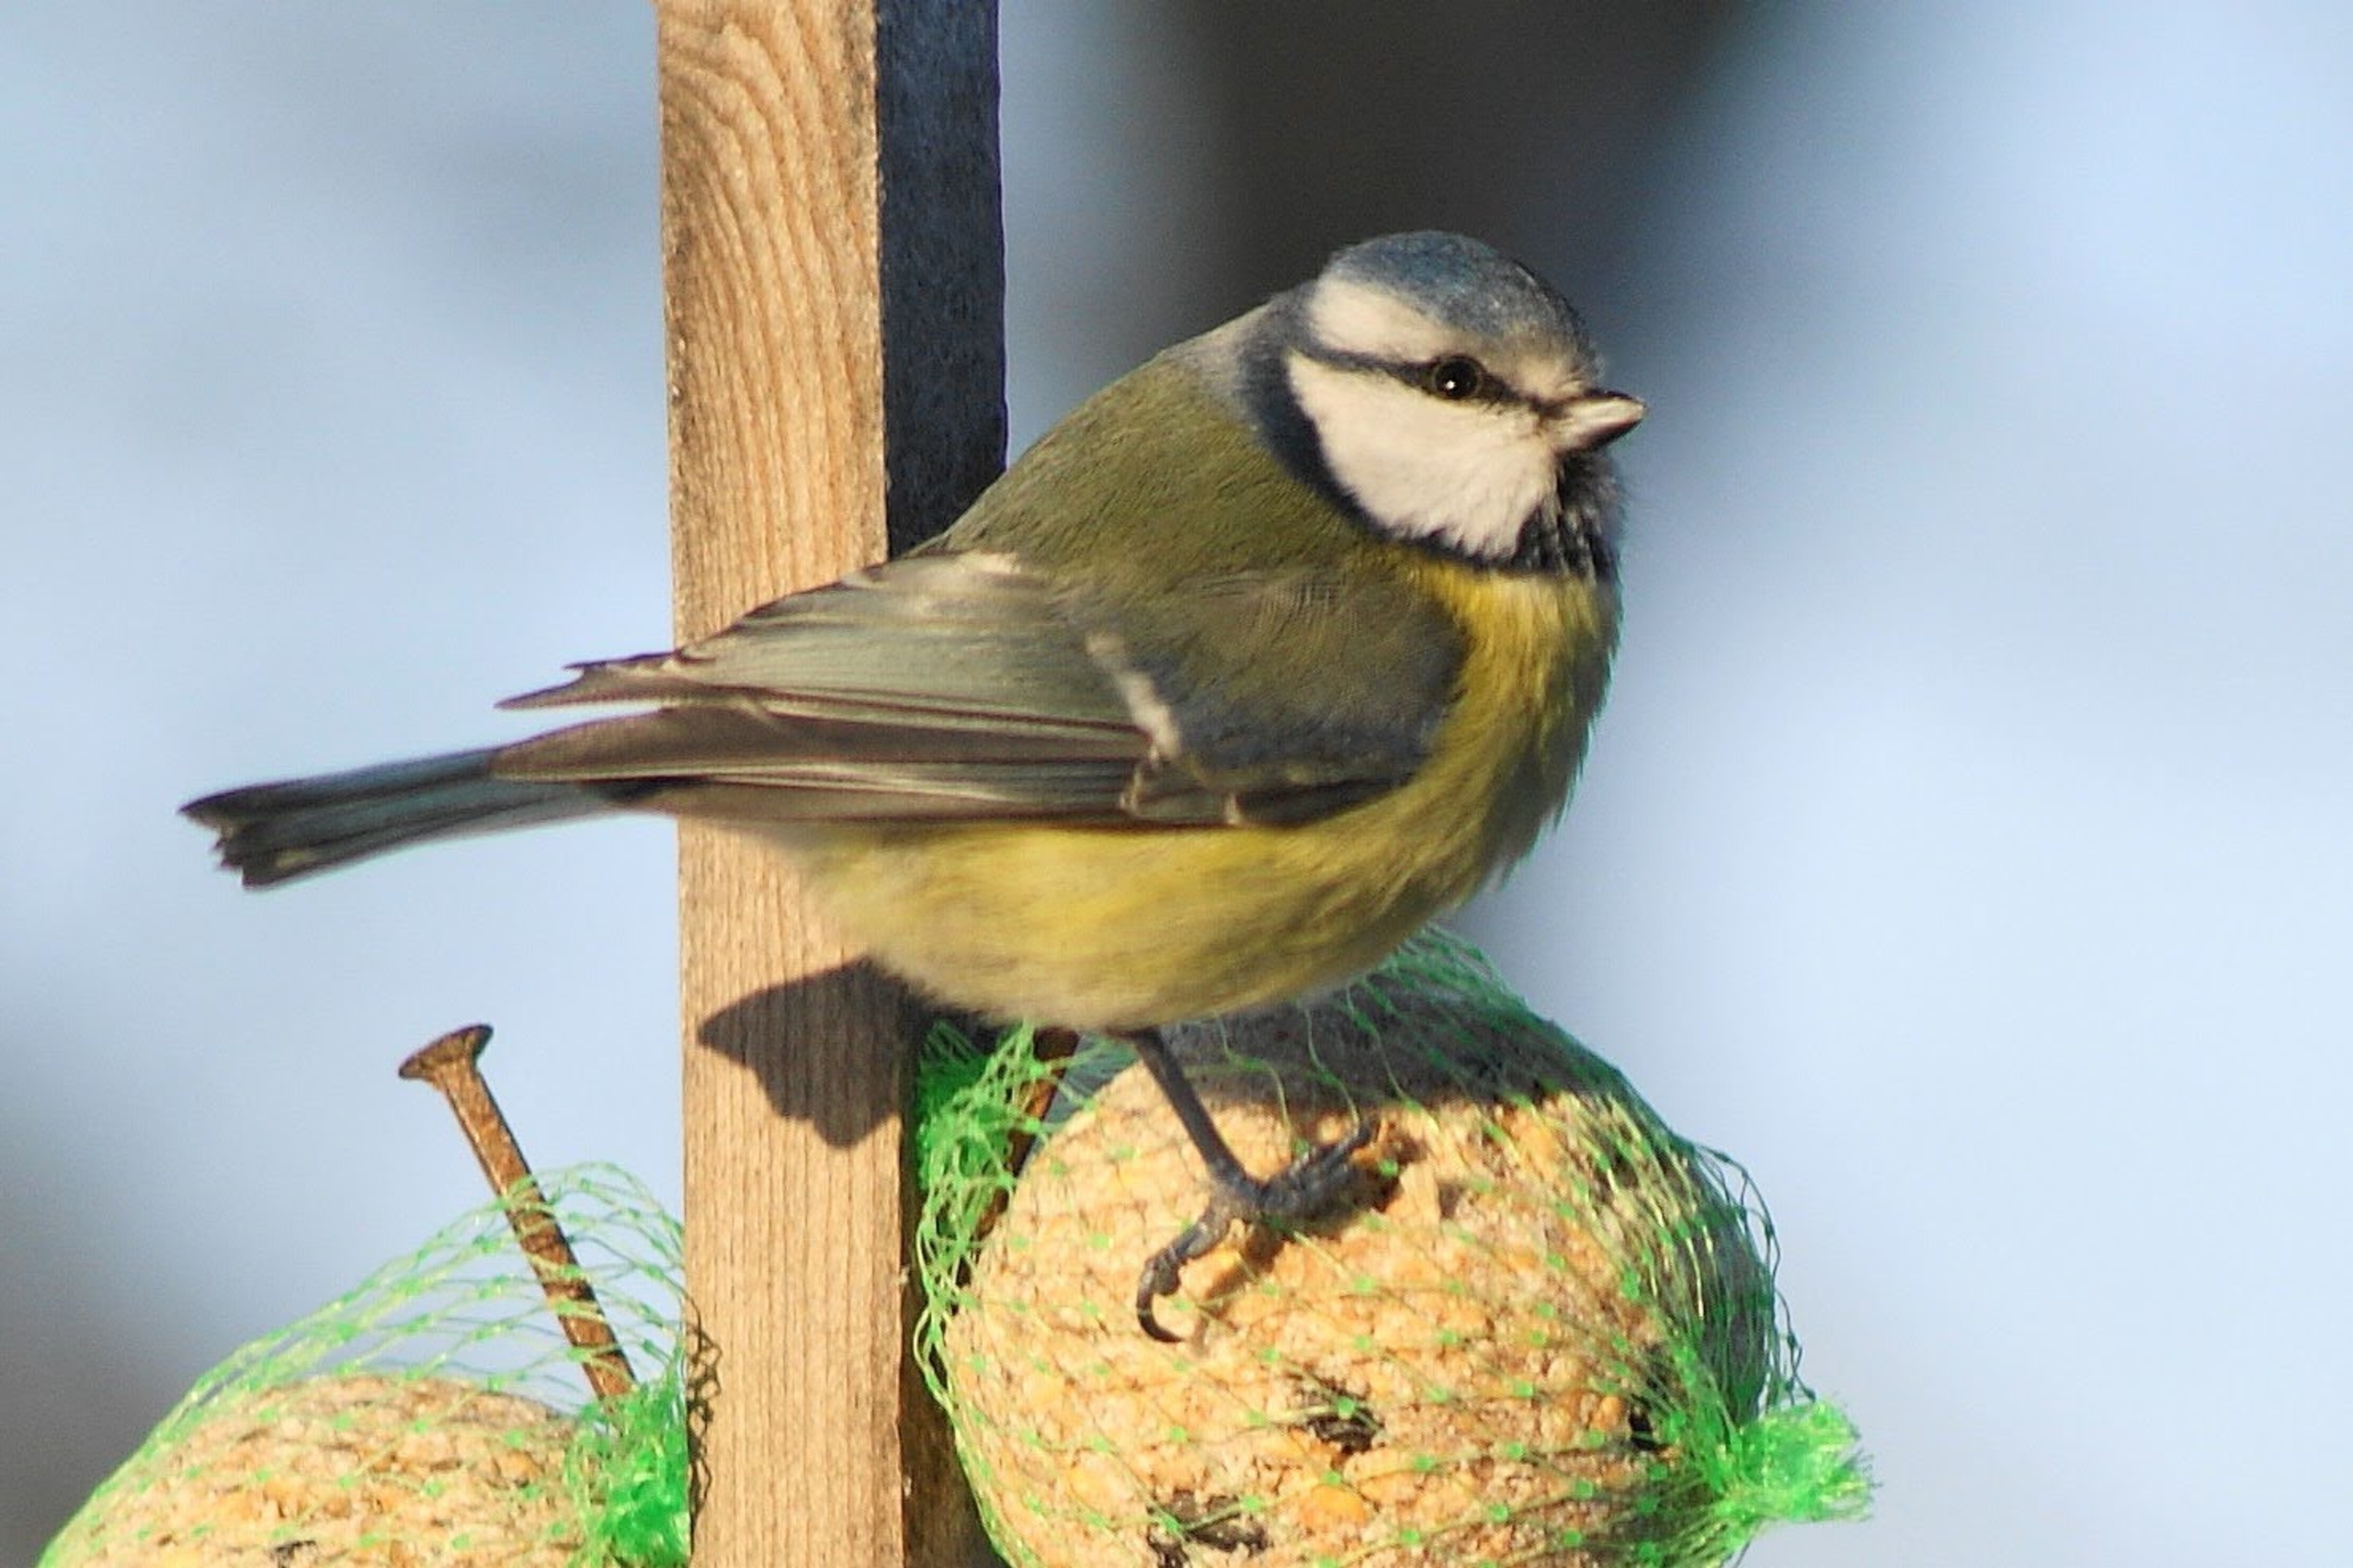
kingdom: Animalia
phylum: Chordata
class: Aves
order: Passeriformes
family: Paridae
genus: Cyanistes
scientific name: Cyanistes caeruleus
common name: Blåmejse
